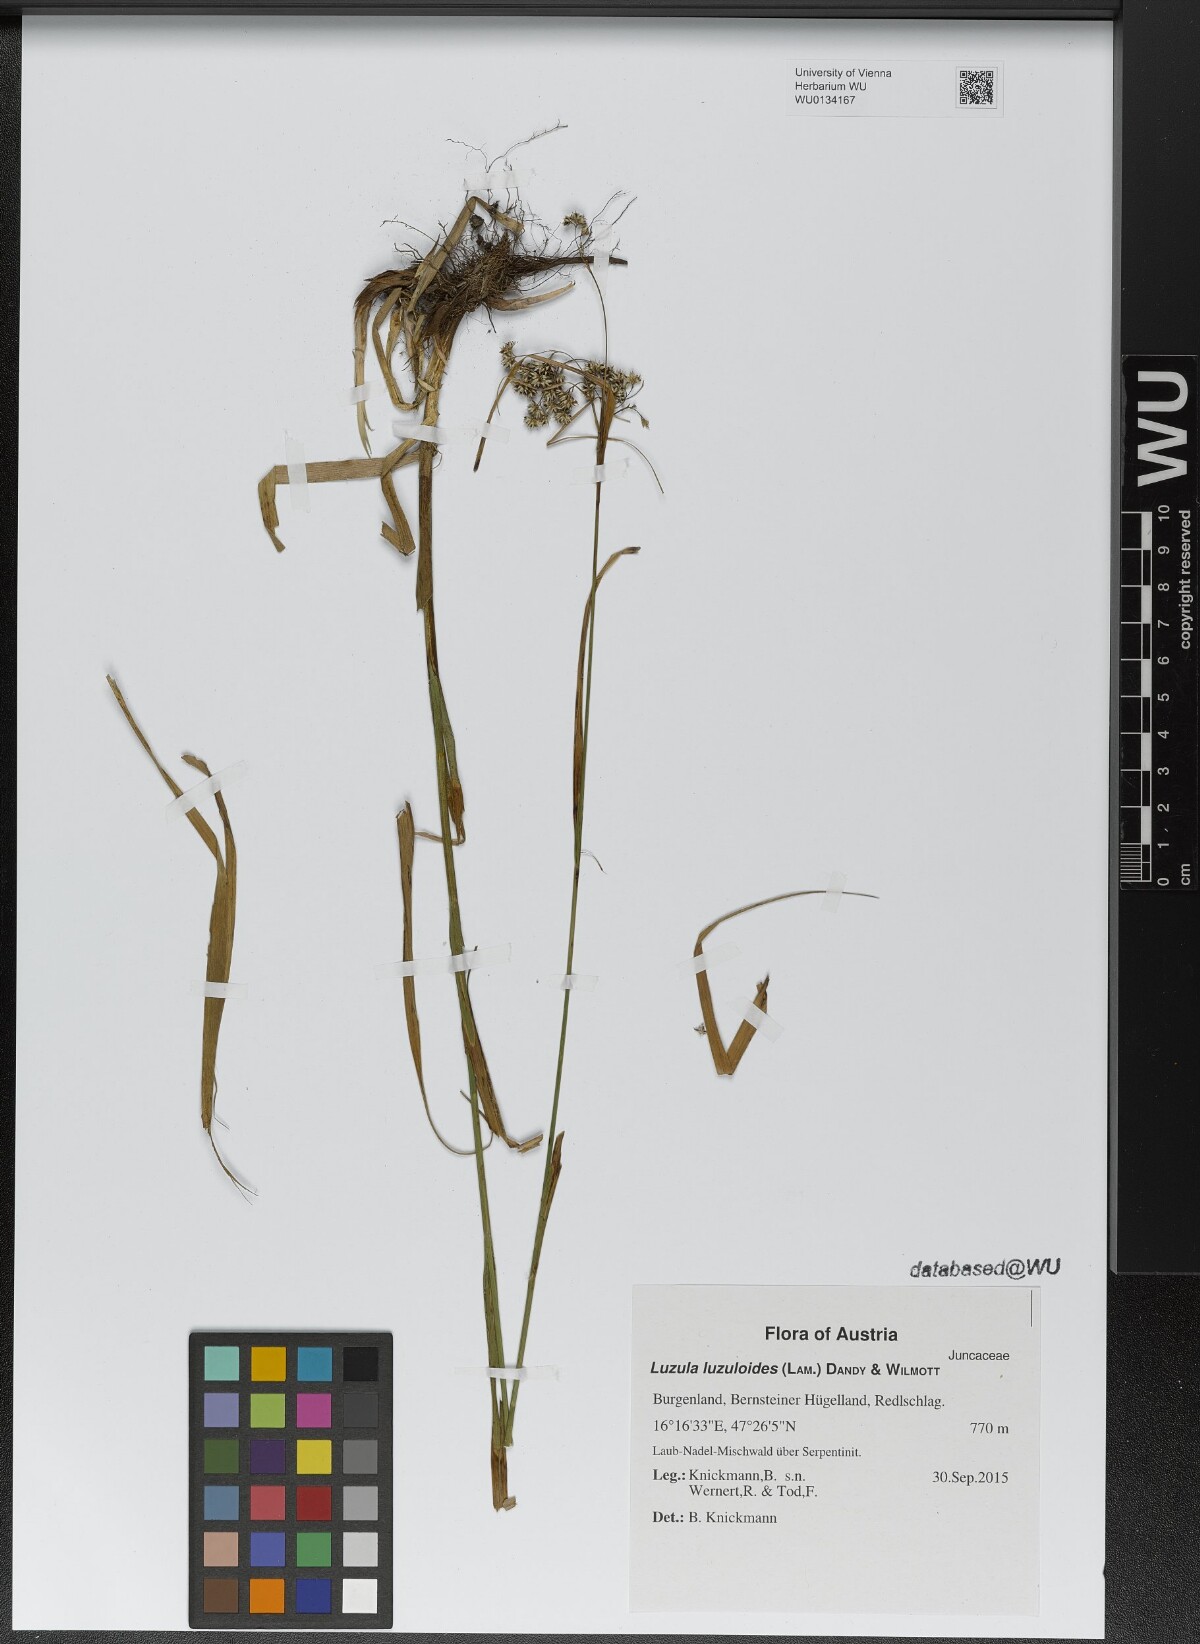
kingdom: Plantae
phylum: Tracheophyta
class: Liliopsida
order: Poales
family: Juncaceae
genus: Luzula
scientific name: Luzula luzuloides
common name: White wood-rush
